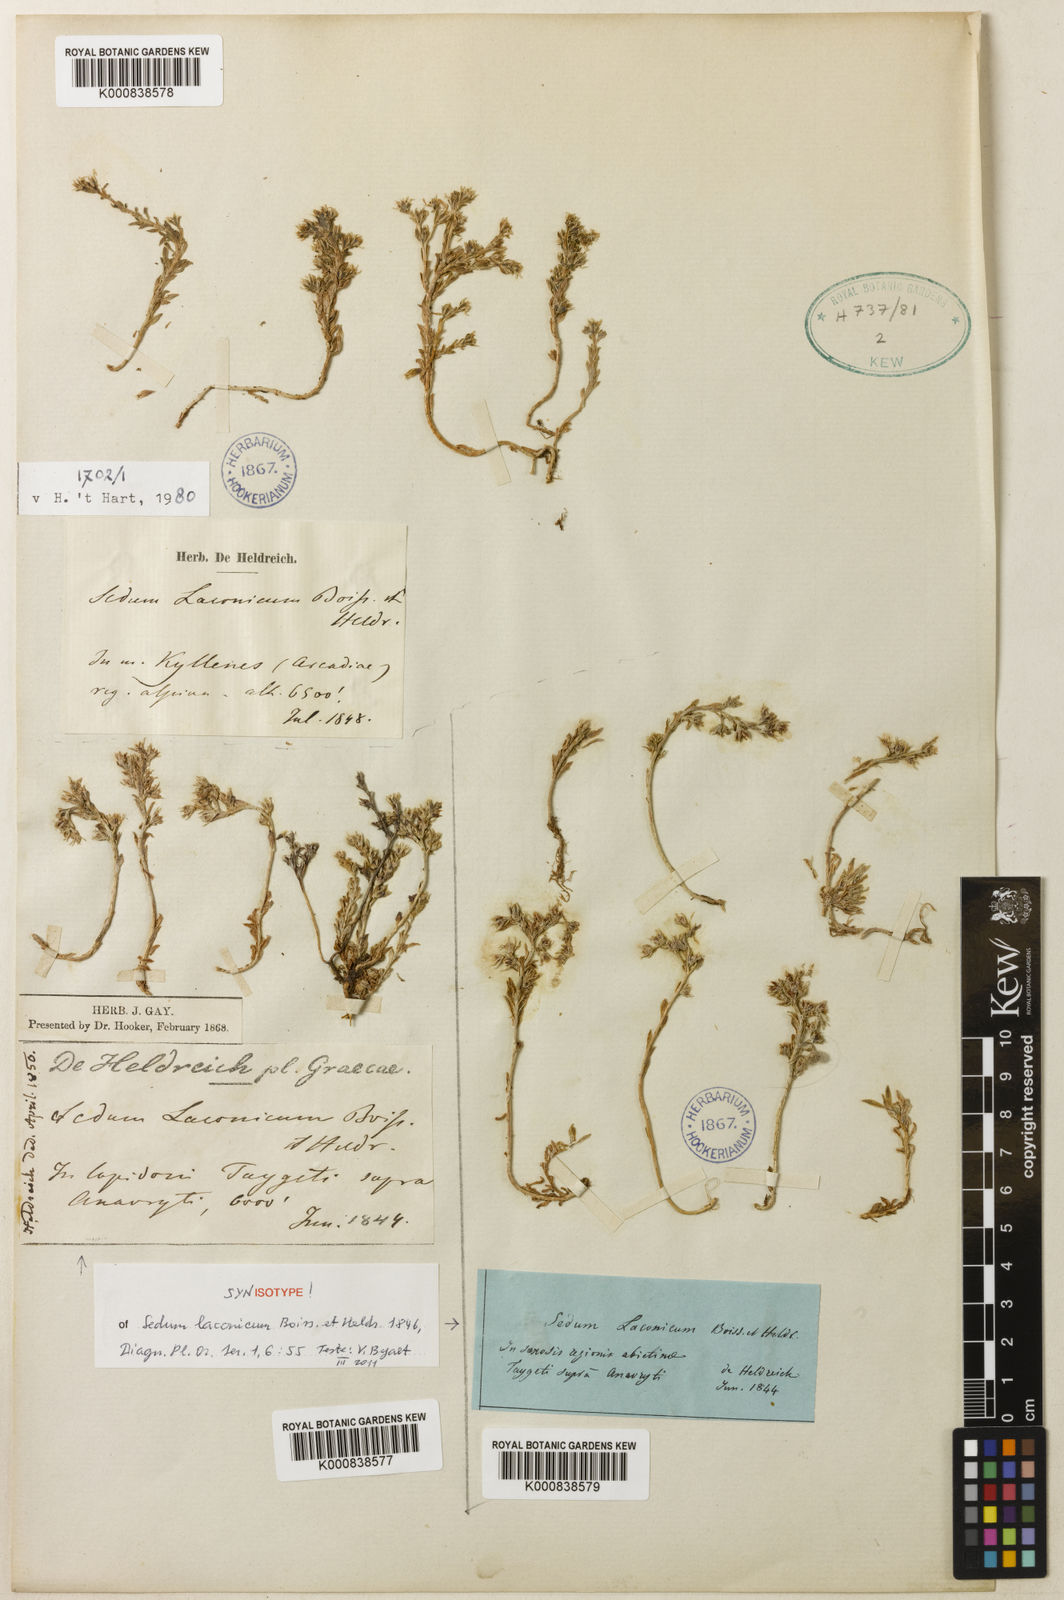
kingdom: Plantae
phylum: Tracheophyta
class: Magnoliopsida
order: Saxifragales
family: Crassulaceae
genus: Sedum
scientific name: Sedum laconicum
